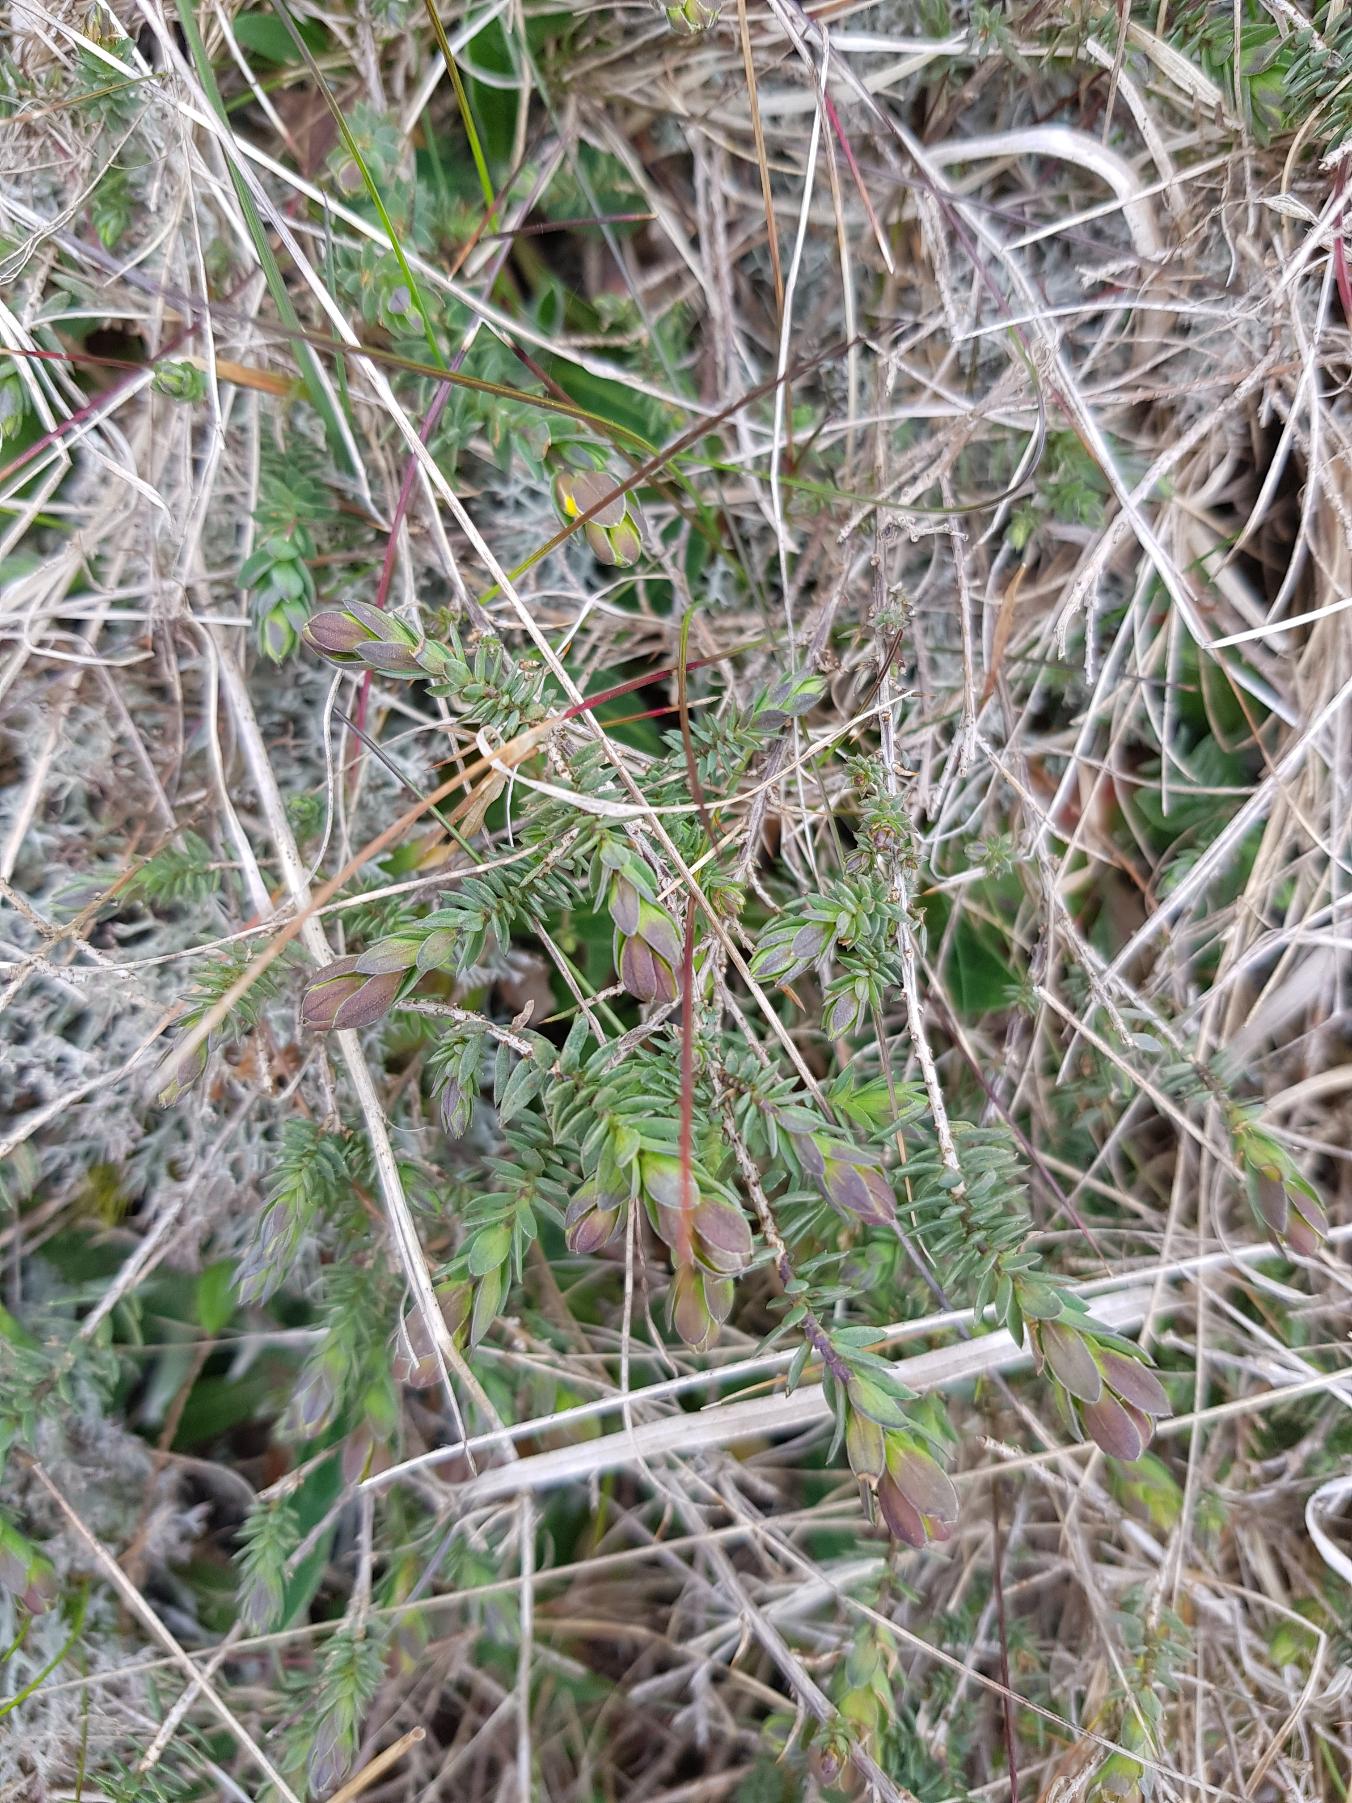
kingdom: Plantae
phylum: Tracheophyta
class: Magnoliopsida
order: Fabales
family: Fabaceae
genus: Genista
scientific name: Genista anglica
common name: Engelsk visse
